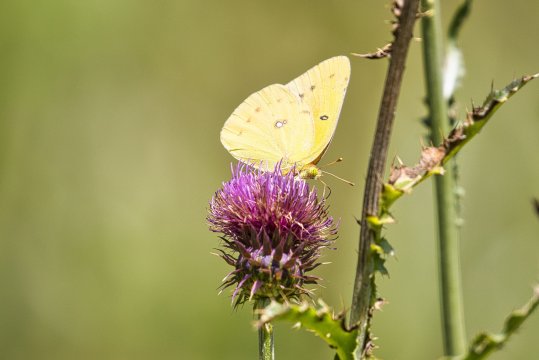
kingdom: Animalia
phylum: Arthropoda
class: Insecta
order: Lepidoptera
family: Pieridae
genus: Colias
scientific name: Colias eurytheme
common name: Orange Sulphur
